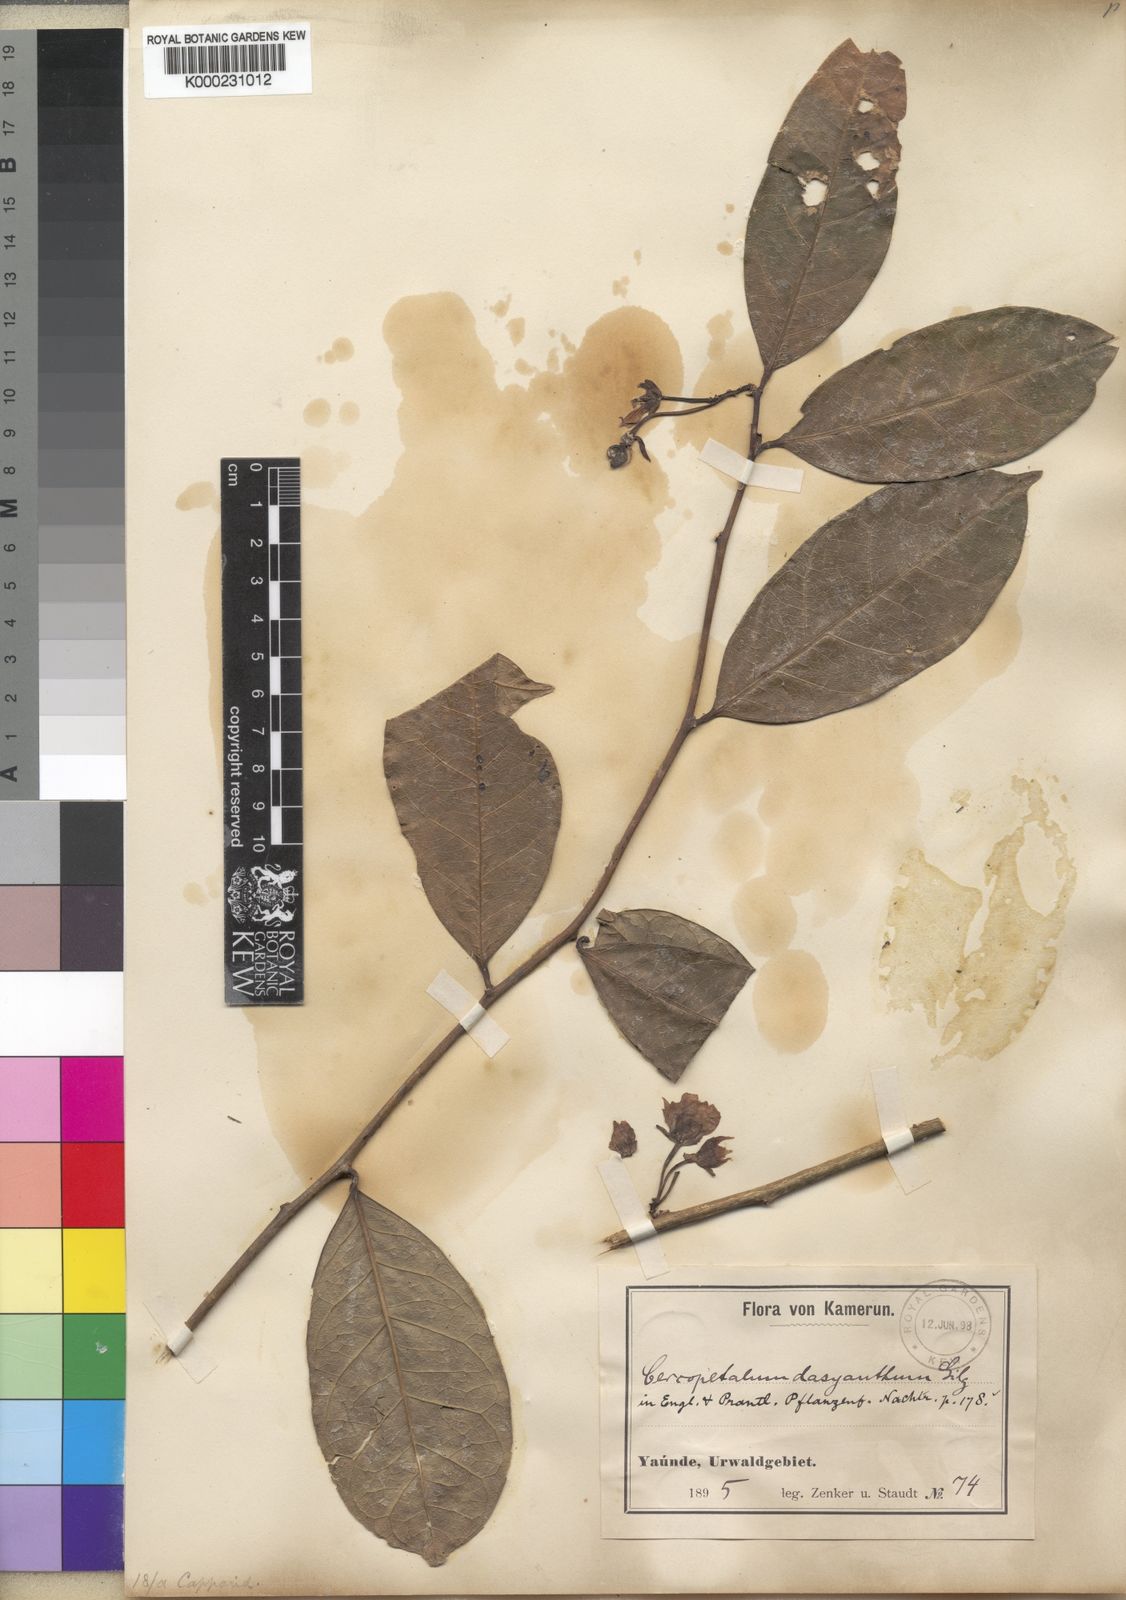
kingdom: Plantae
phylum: Tracheophyta
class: Magnoliopsida
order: Brassicales
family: Pentadiplandraceae
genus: Pentadiplandra
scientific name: Pentadiplandra brazzeana
